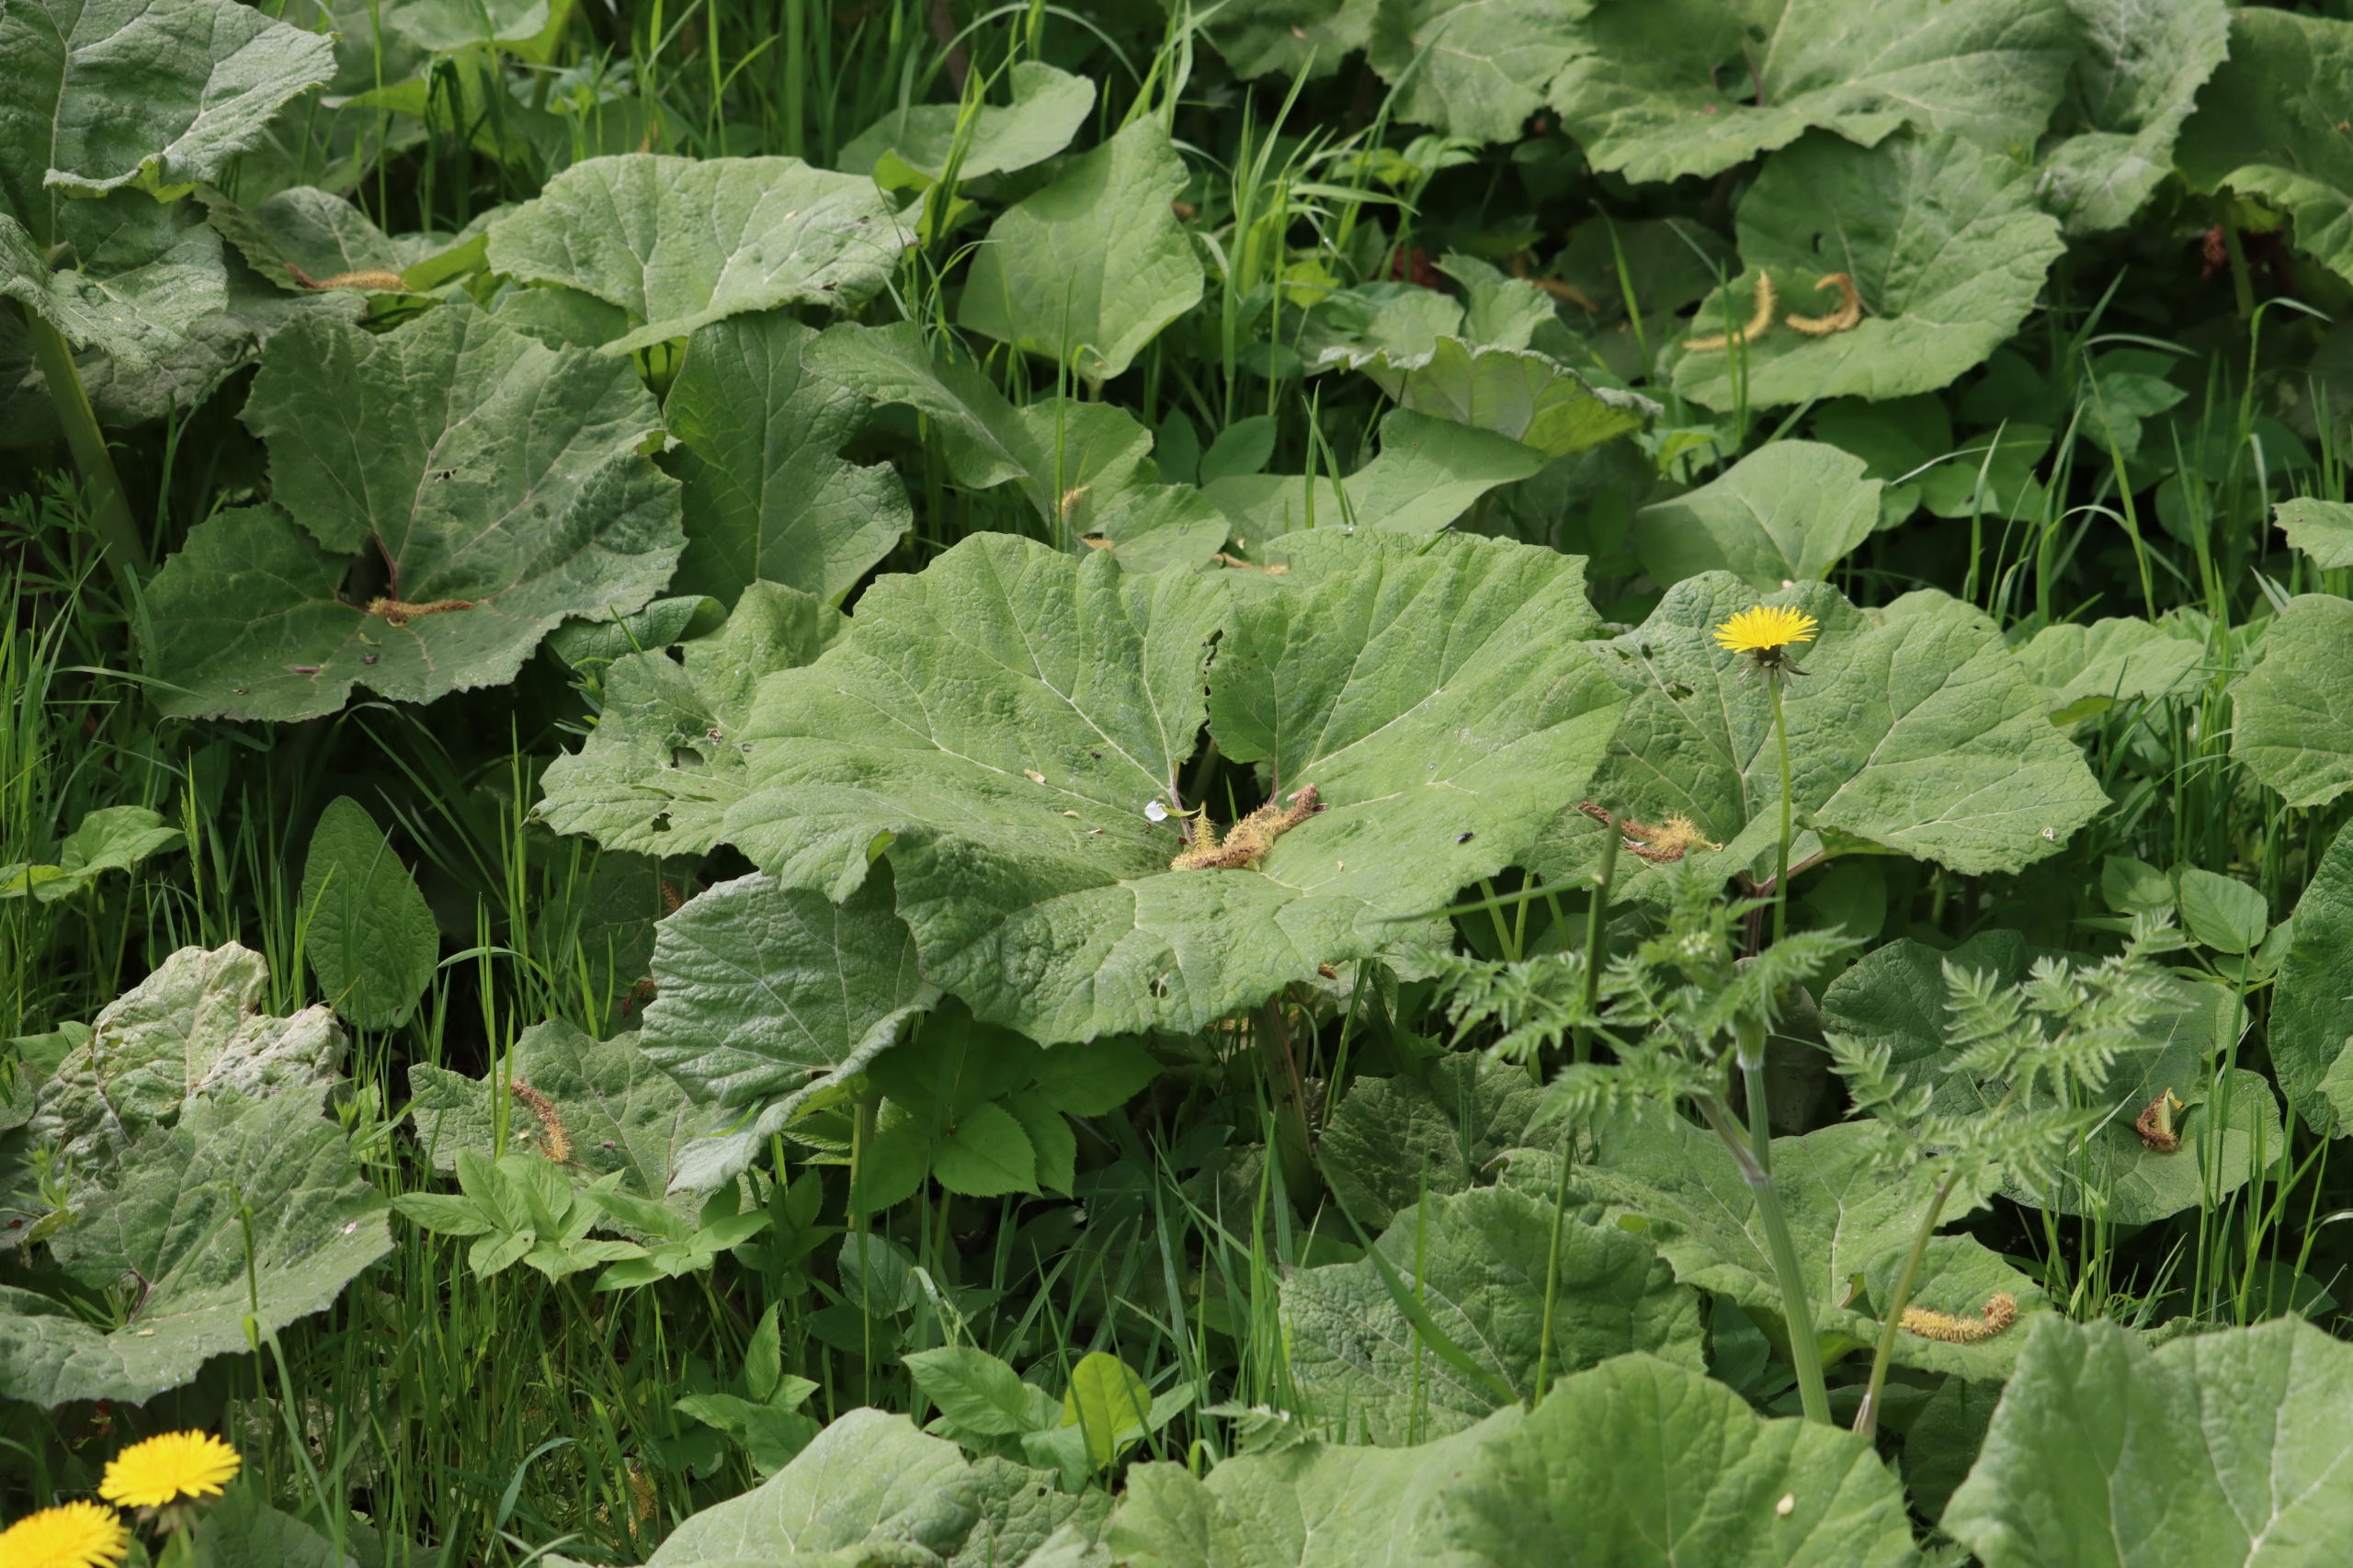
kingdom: Plantae
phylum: Tracheophyta
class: Magnoliopsida
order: Asterales
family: Asteraceae
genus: Petasites
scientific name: Petasites hybridus
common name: Rød hestehov
